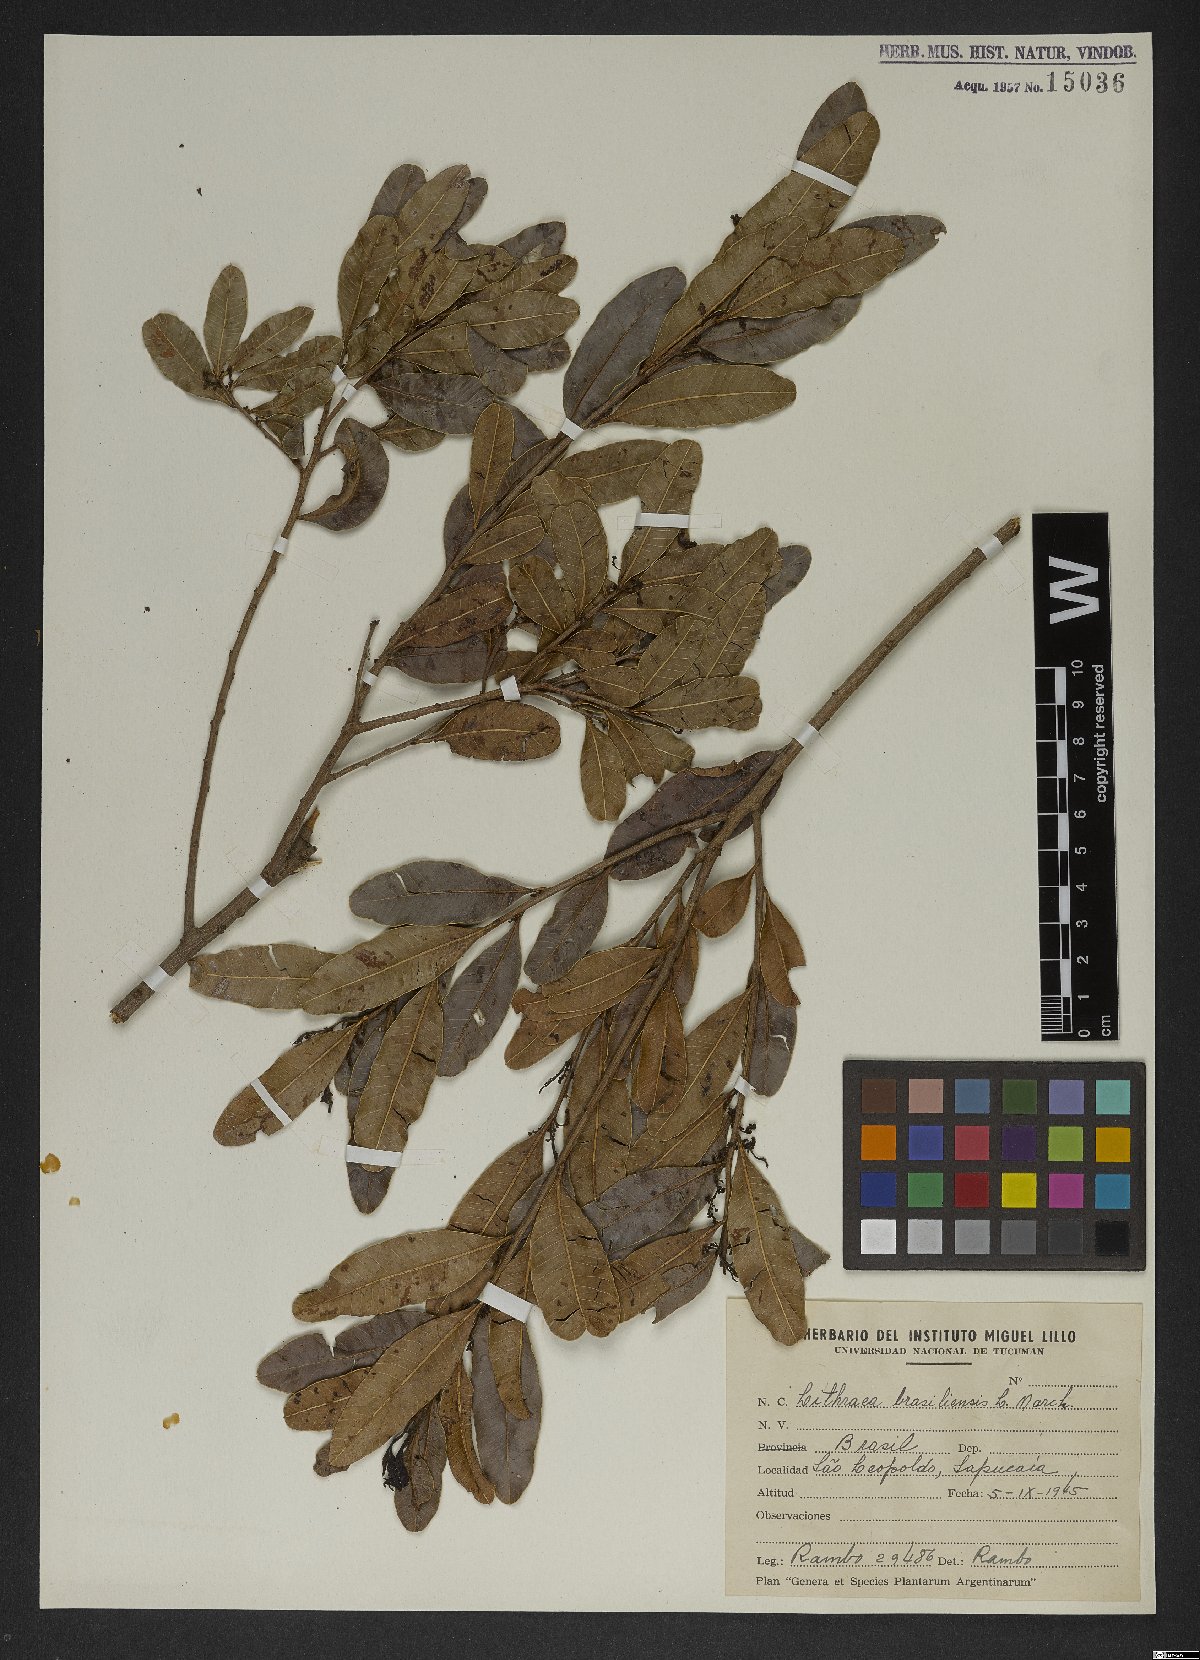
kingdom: Plantae
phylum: Tracheophyta
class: Magnoliopsida
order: Sapindales
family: Anacardiaceae
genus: Lithraea
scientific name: Lithraea brasiliensis
